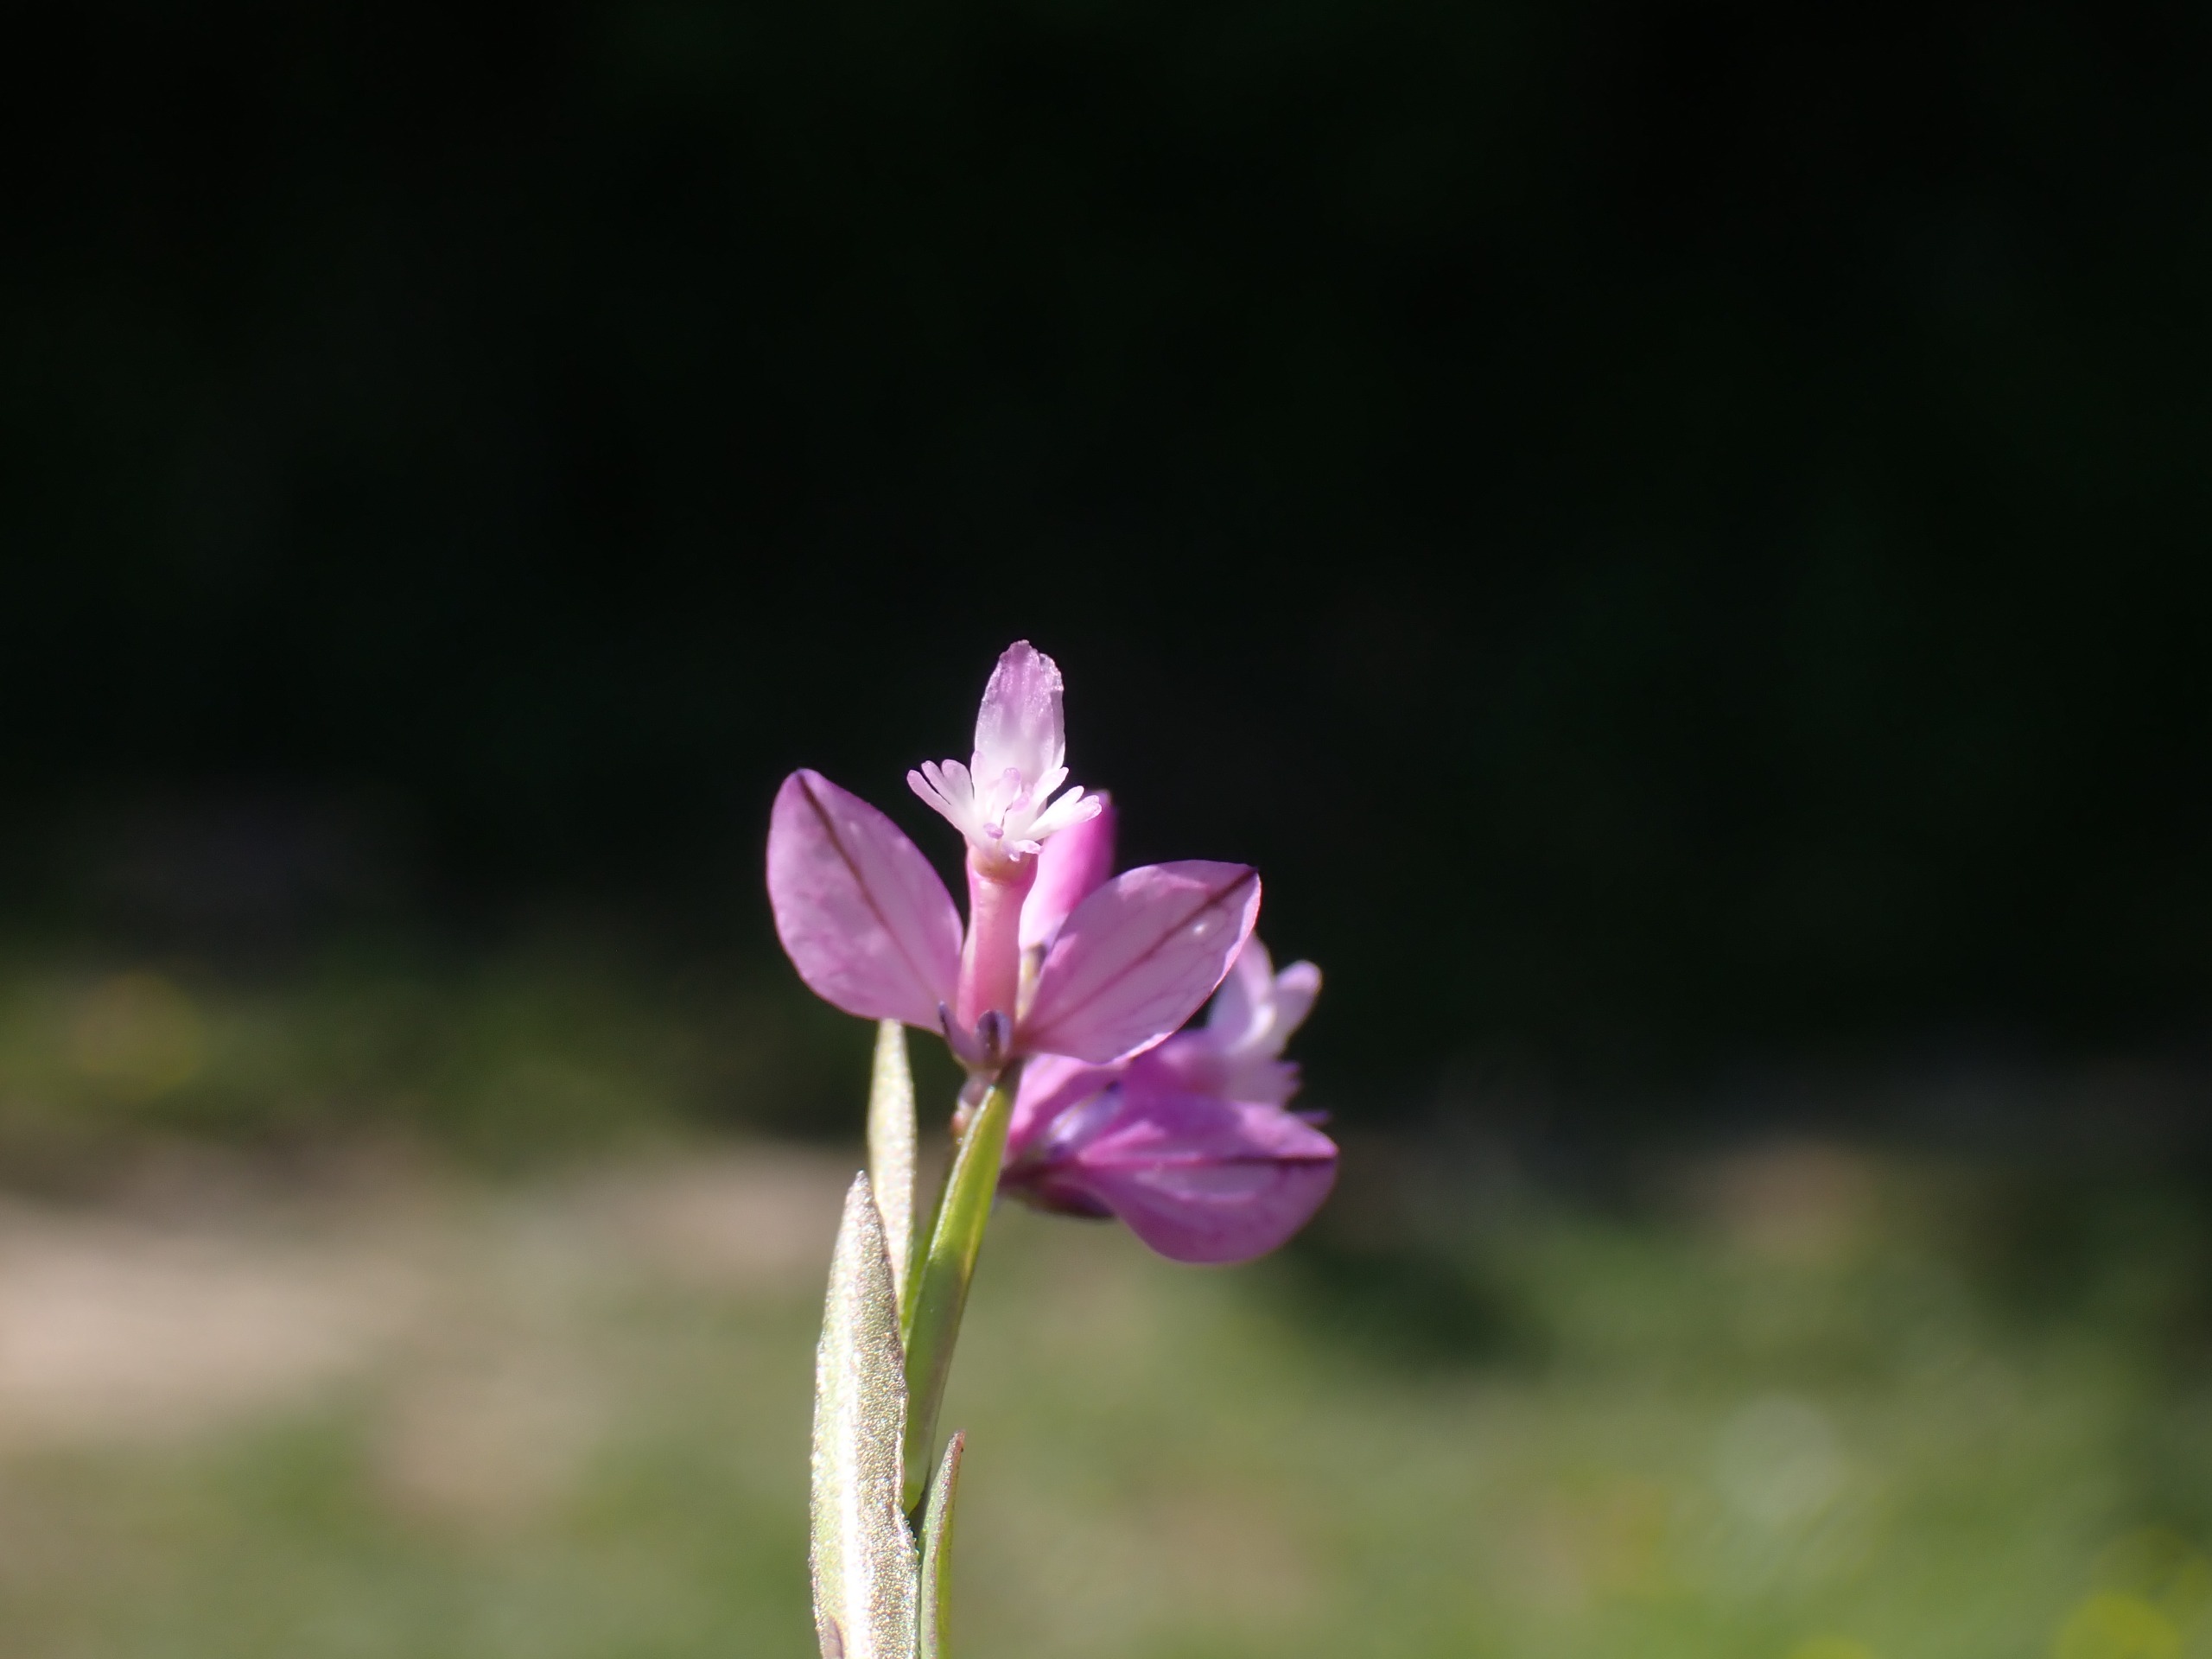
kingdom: Plantae
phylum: Tracheophyta
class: Magnoliopsida
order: Fabales
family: Polygalaceae
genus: Polygala
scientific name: Polygala vulgaris
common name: Almindelig mælkeurt
